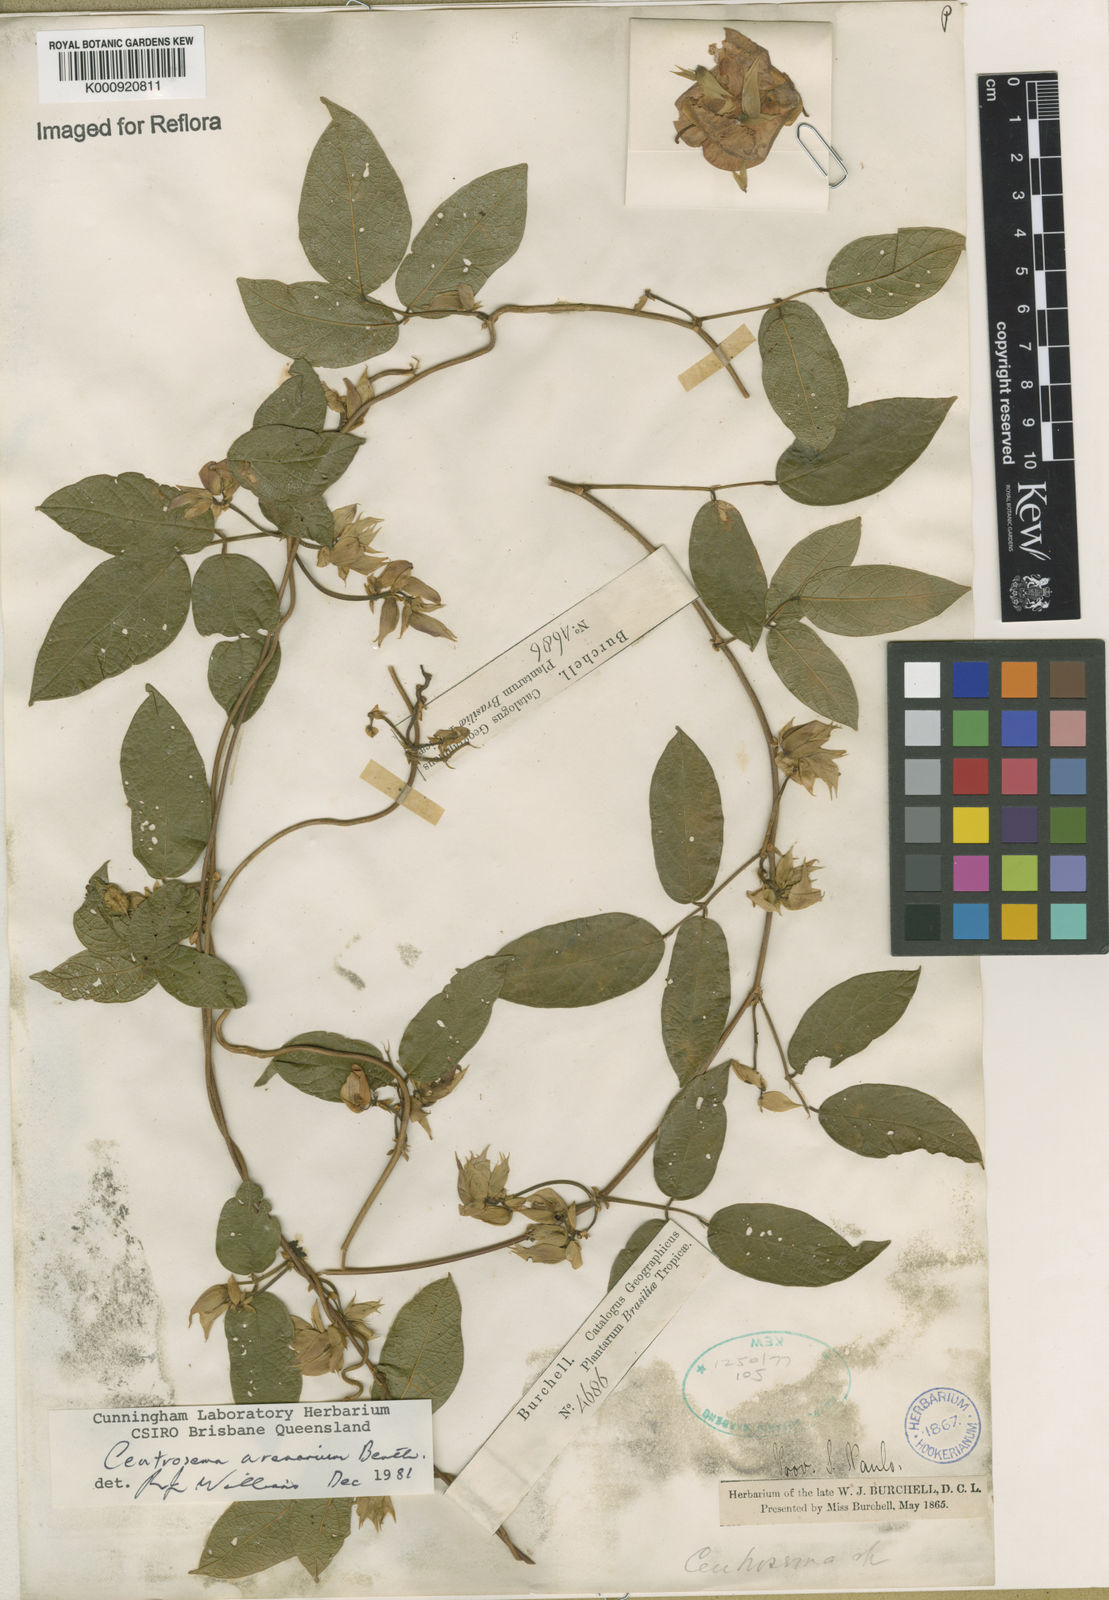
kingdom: Plantae
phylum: Tracheophyta
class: Magnoliopsida
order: Fabales
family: Fabaceae
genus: Centrosema
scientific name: Centrosema arenarium
